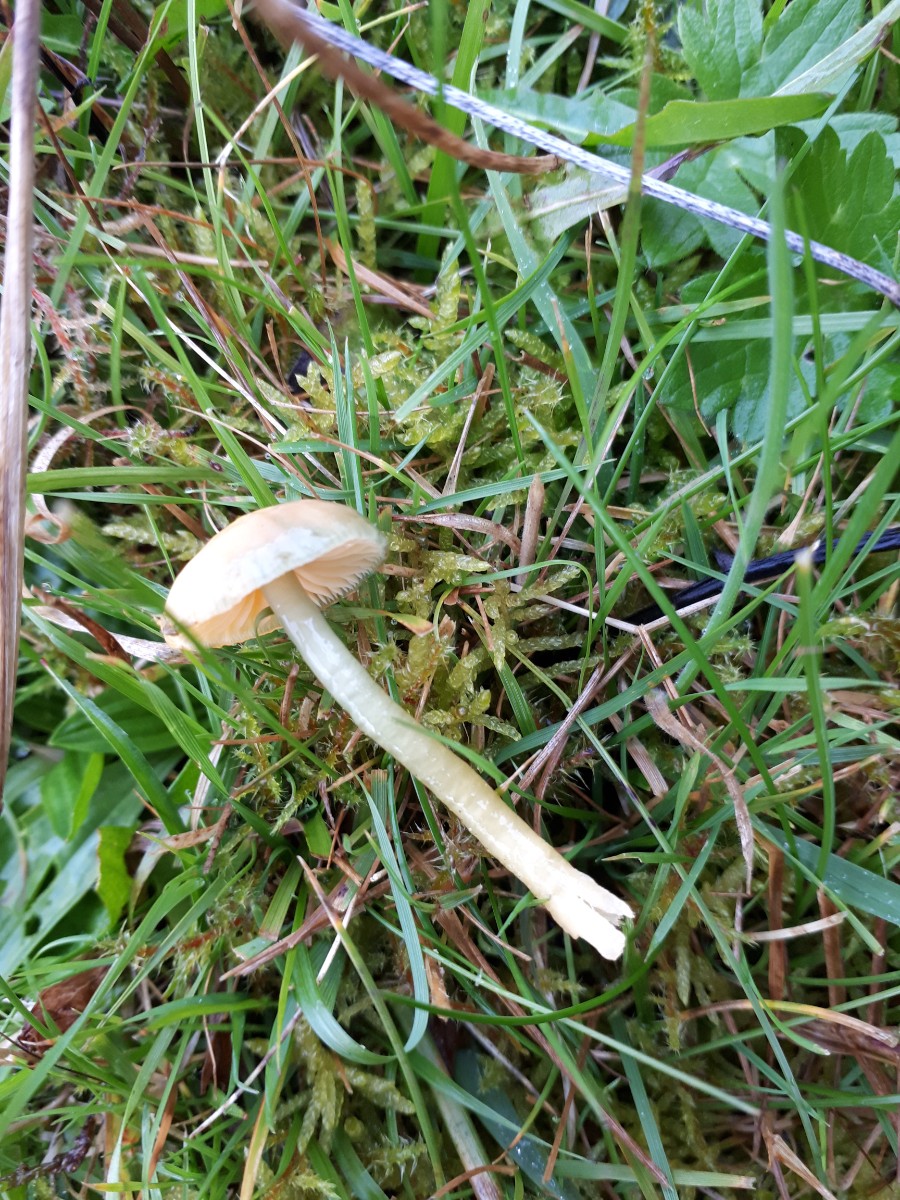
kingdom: Fungi
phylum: Basidiomycota
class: Agaricomycetes
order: Agaricales
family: Hygrophoraceae
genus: Gliophorus
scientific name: Gliophorus psittacinus
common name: papegøje-vokshat
